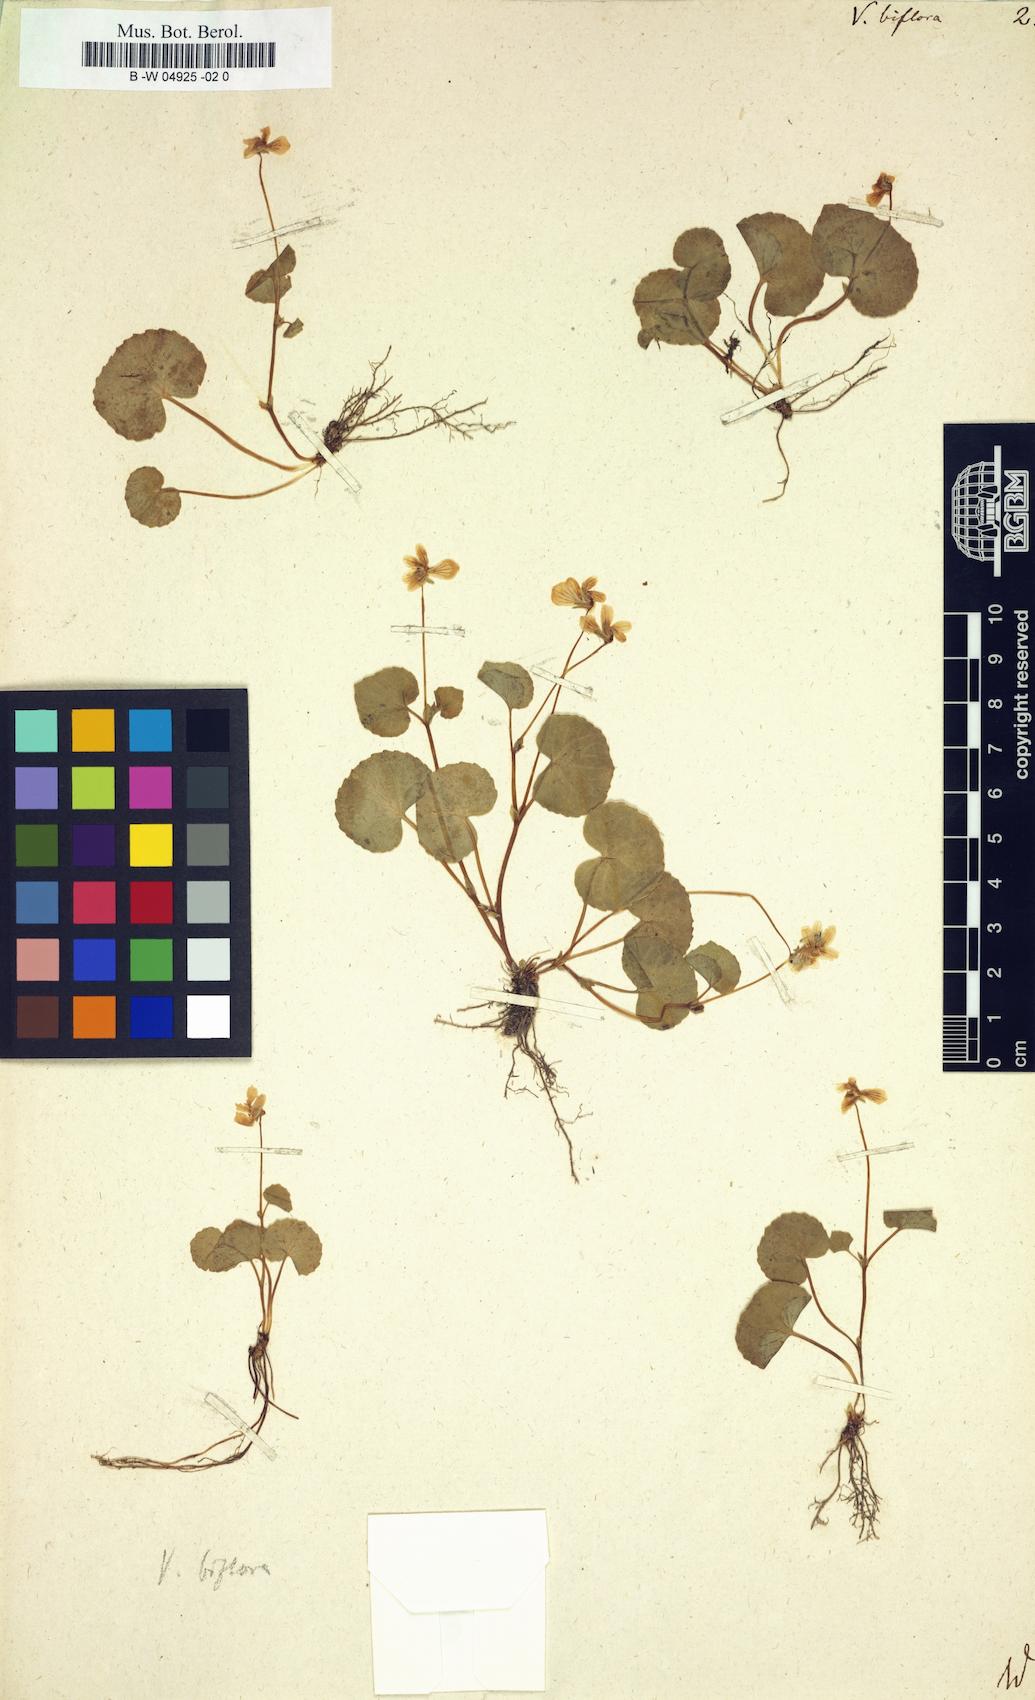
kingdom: Plantae
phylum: Tracheophyta
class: Magnoliopsida
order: Malpighiales
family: Violaceae
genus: Viola
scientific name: Viola biflora
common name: Alpine yellow violet
